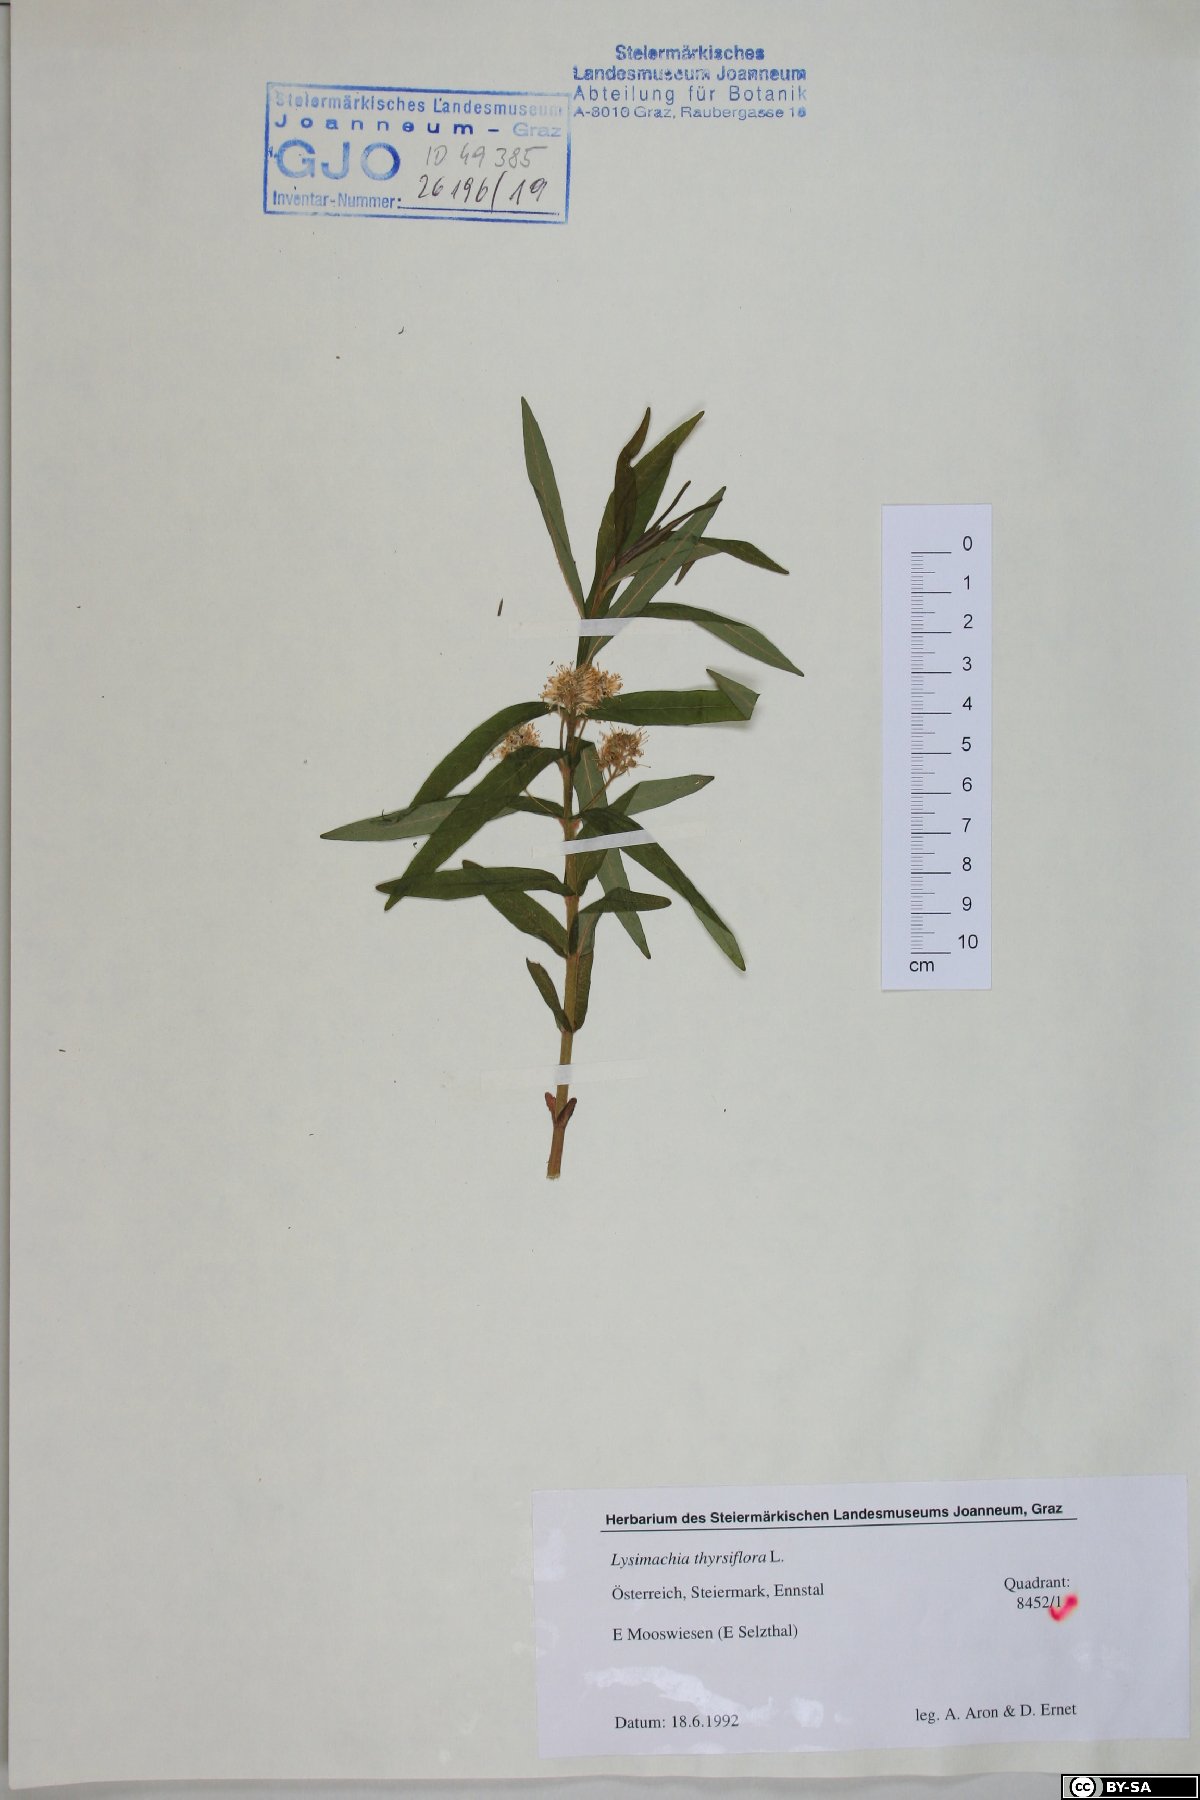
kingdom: Plantae
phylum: Tracheophyta
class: Magnoliopsida
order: Ericales
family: Primulaceae
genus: Lysimachia
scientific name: Lysimachia thyrsiflora
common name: Tufted loosestrife
